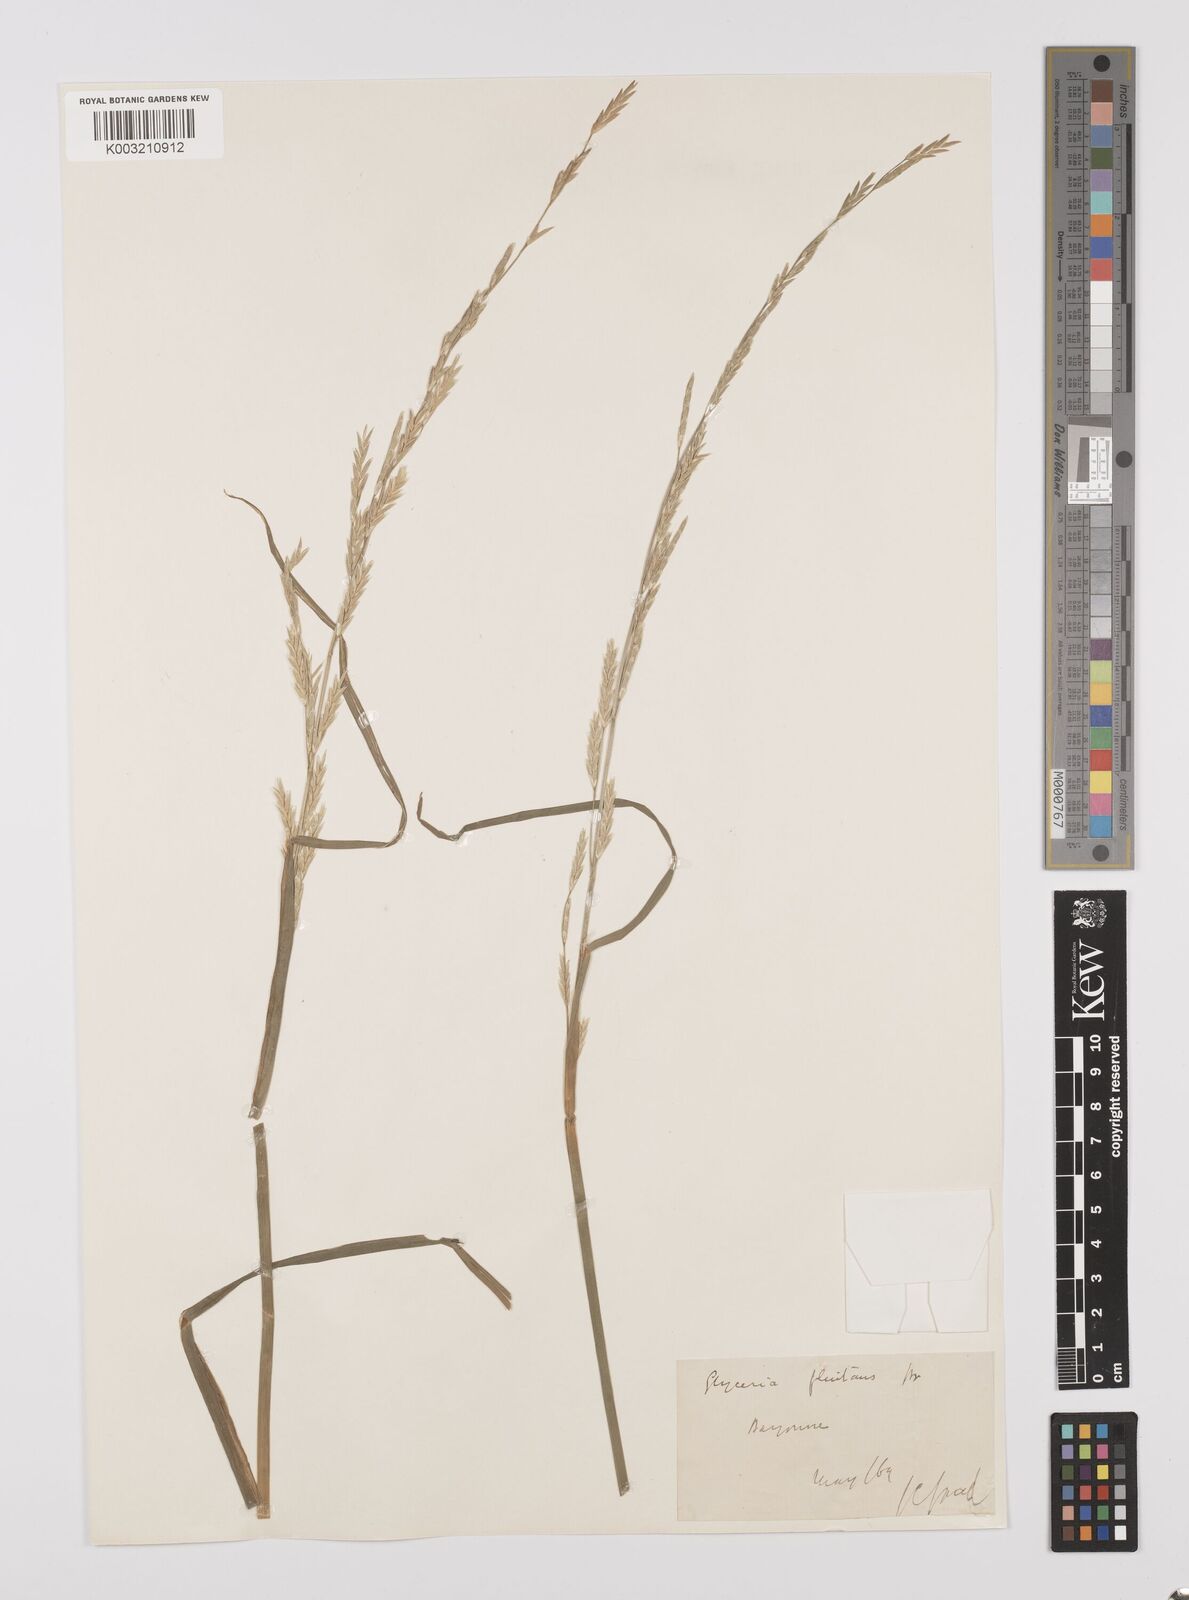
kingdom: Plantae
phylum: Tracheophyta
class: Liliopsida
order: Poales
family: Poaceae
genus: Glyceria
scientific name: Glyceria fluitans
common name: Floating sweet-grass
